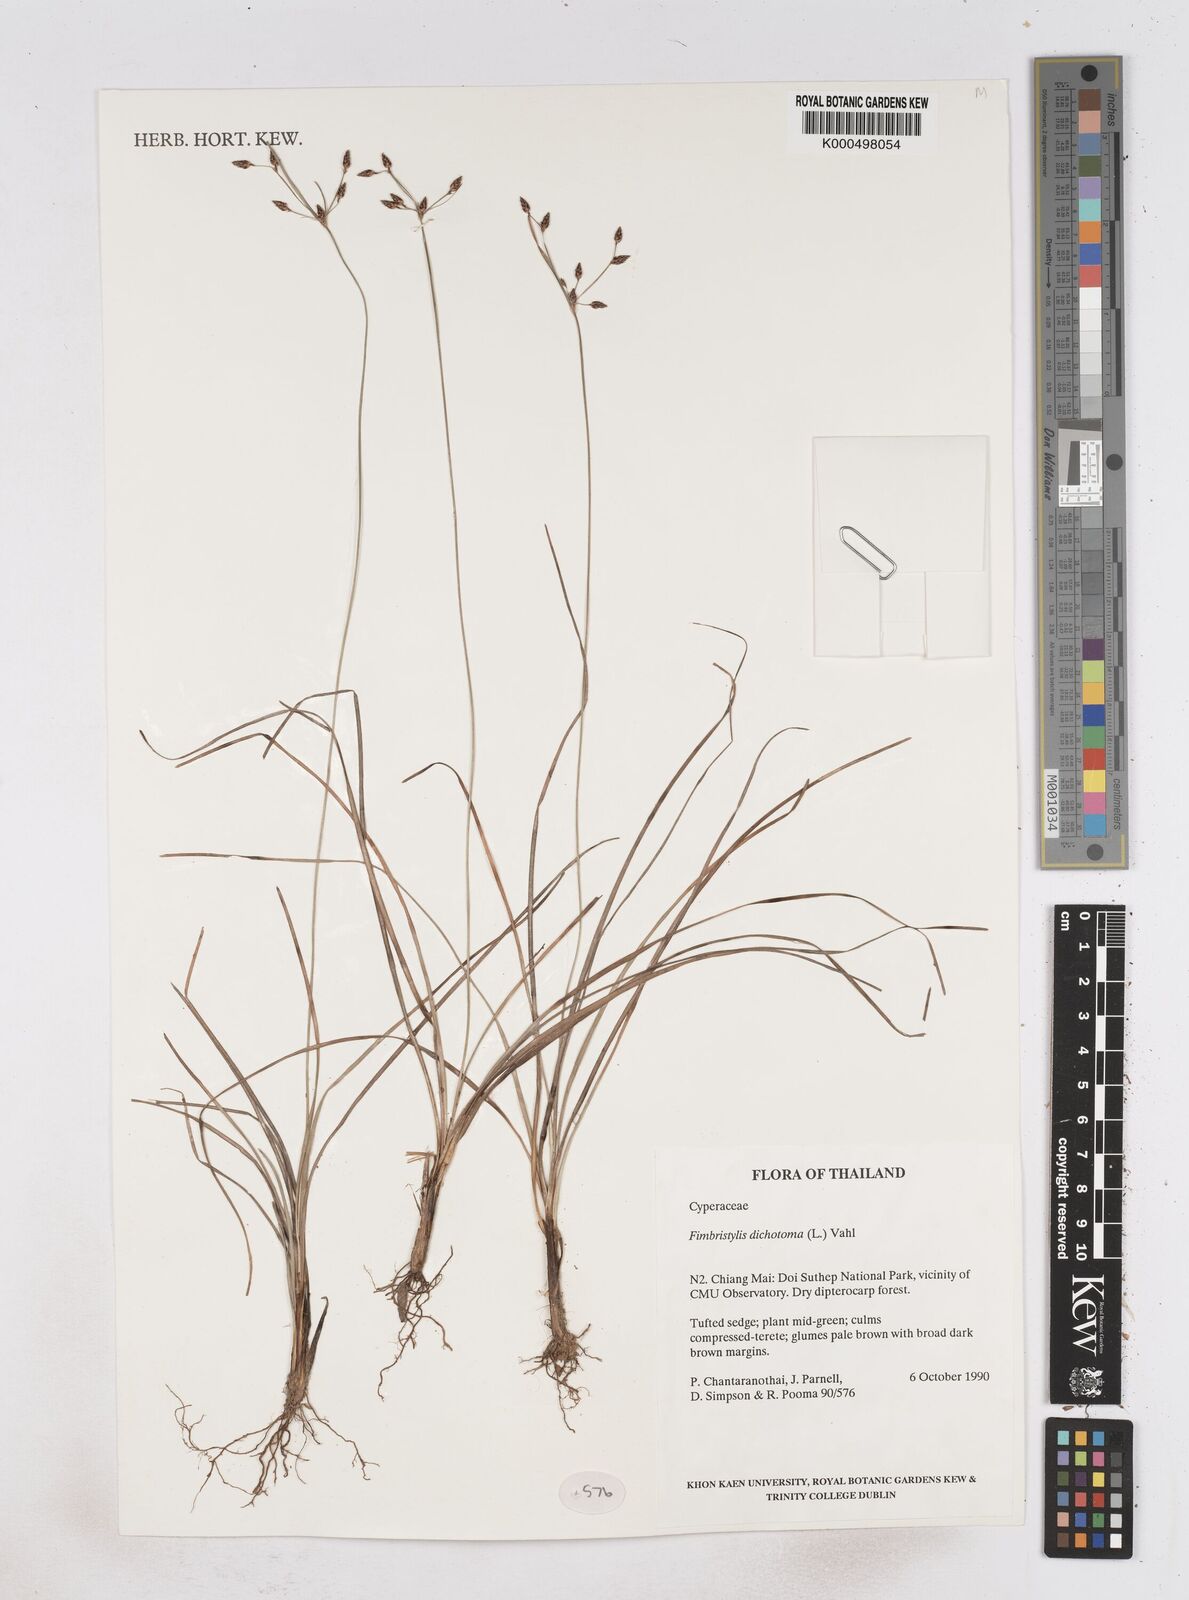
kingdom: Plantae
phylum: Tracheophyta
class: Liliopsida
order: Poales
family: Cyperaceae
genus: Fimbristylis
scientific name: Fimbristylis dichotoma
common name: Forked fimbry
